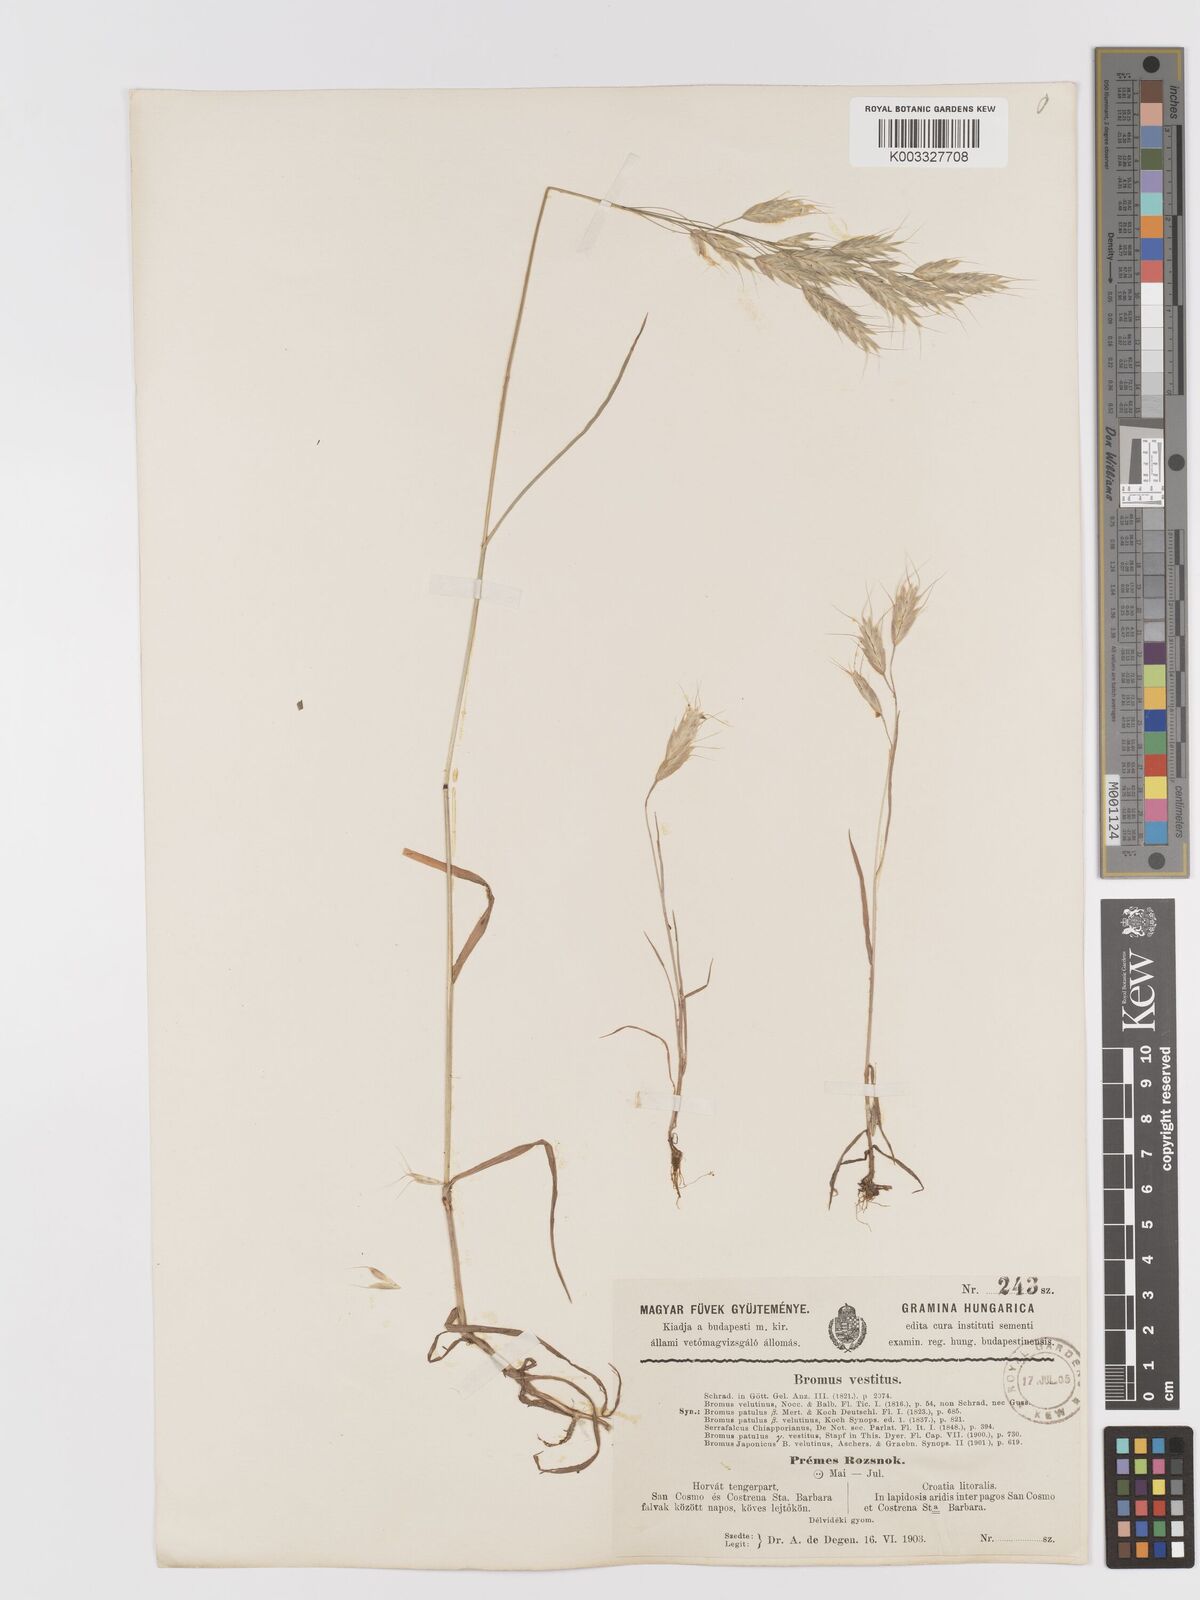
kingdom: Plantae
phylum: Tracheophyta
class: Liliopsida
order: Poales
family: Poaceae
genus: Bromus
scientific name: Bromus japonicus
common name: Japanese brome
